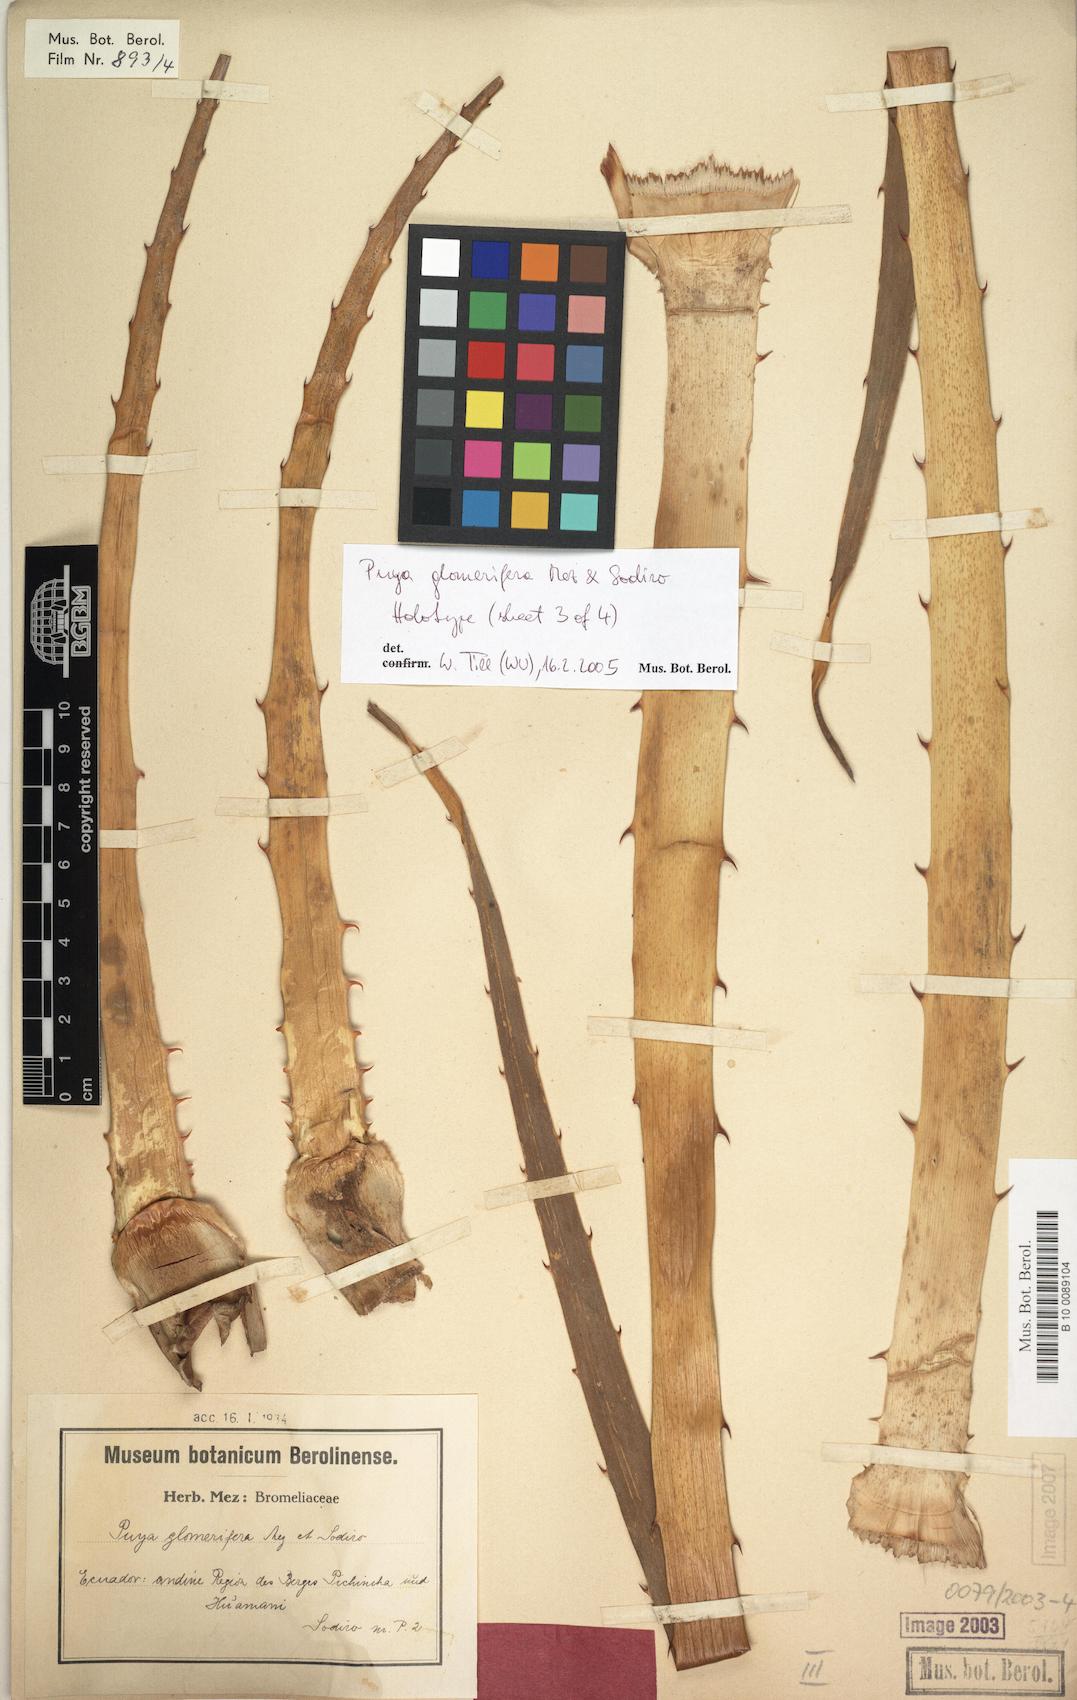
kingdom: Plantae
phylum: Tracheophyta
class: Liliopsida
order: Poales
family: Bromeliaceae
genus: Puya
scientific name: Puya glomerifera
